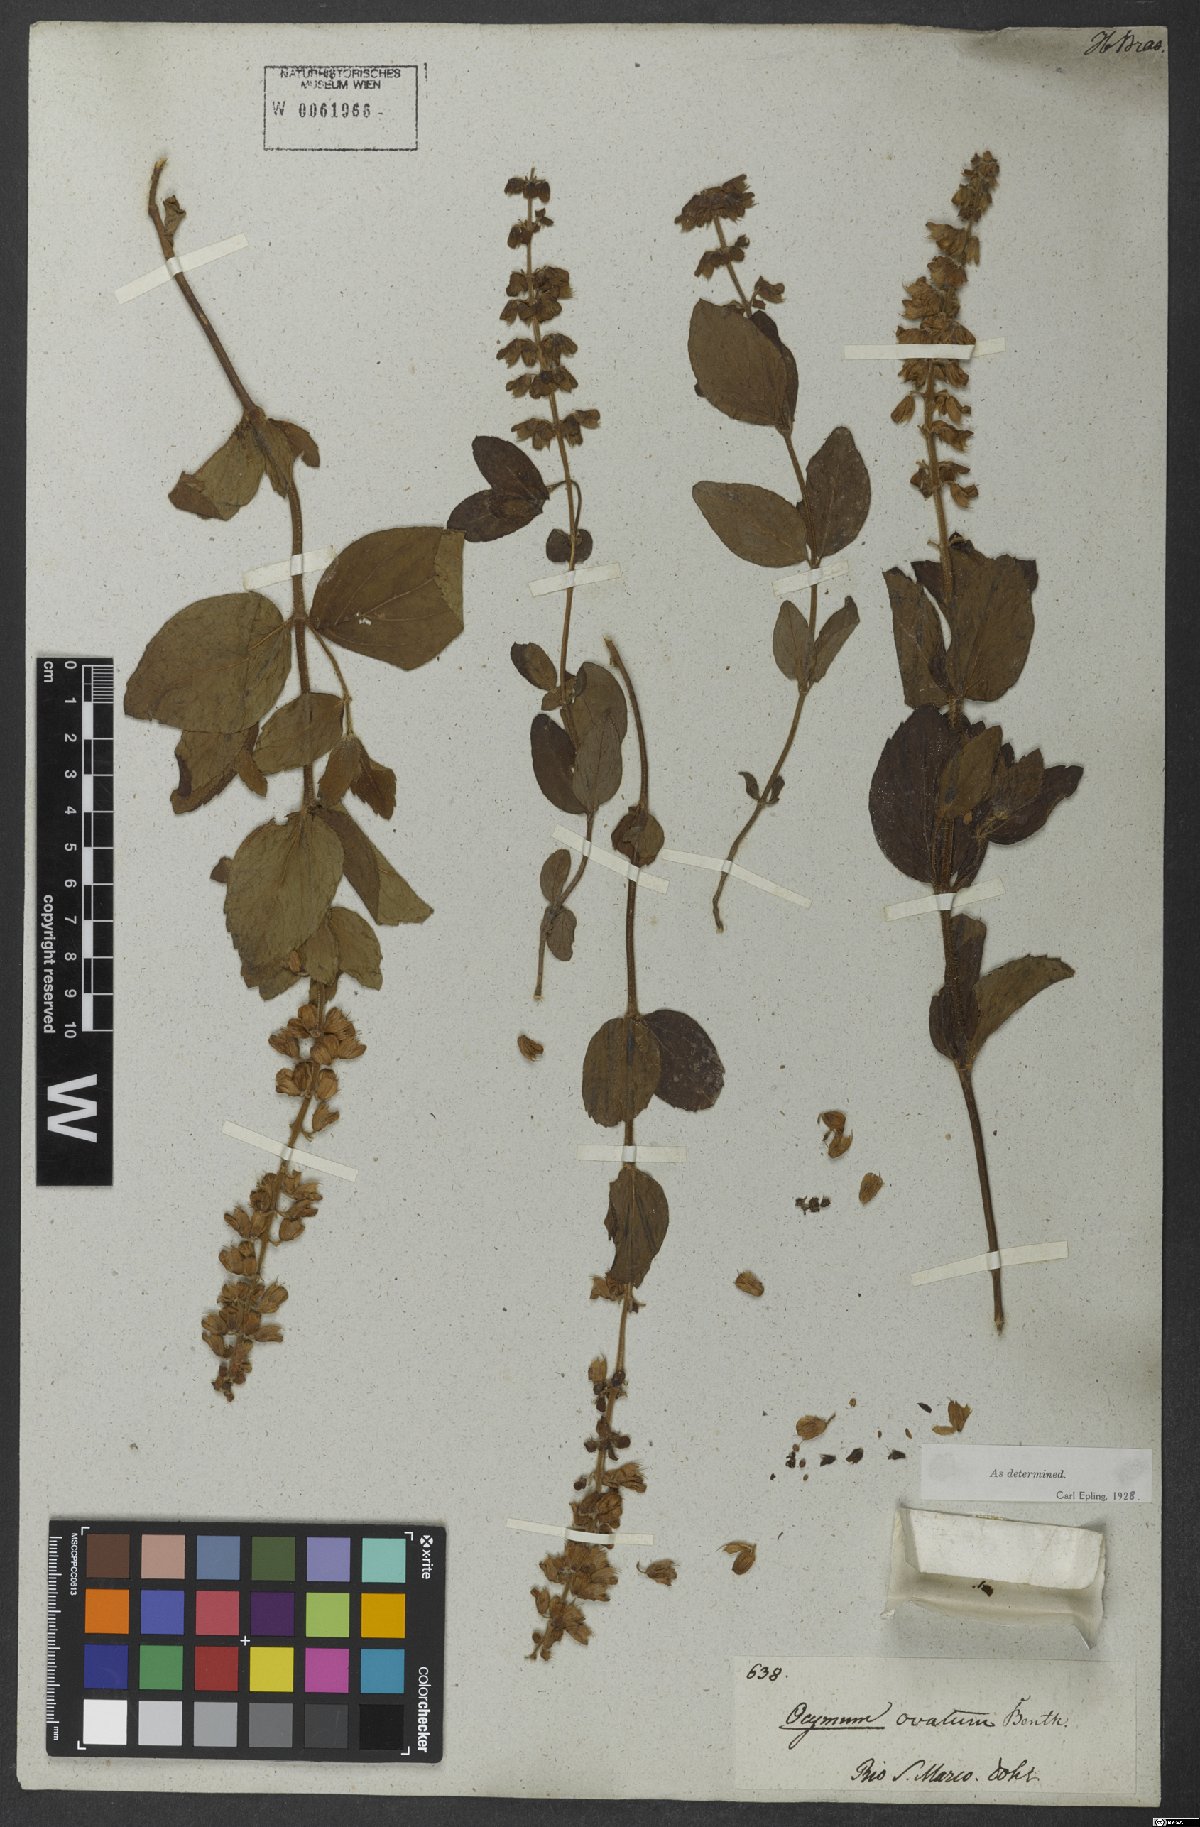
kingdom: Plantae
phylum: Tracheophyta
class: Magnoliopsida
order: Lamiales
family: Lamiaceae
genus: Ocimum
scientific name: Ocimum ovatum
